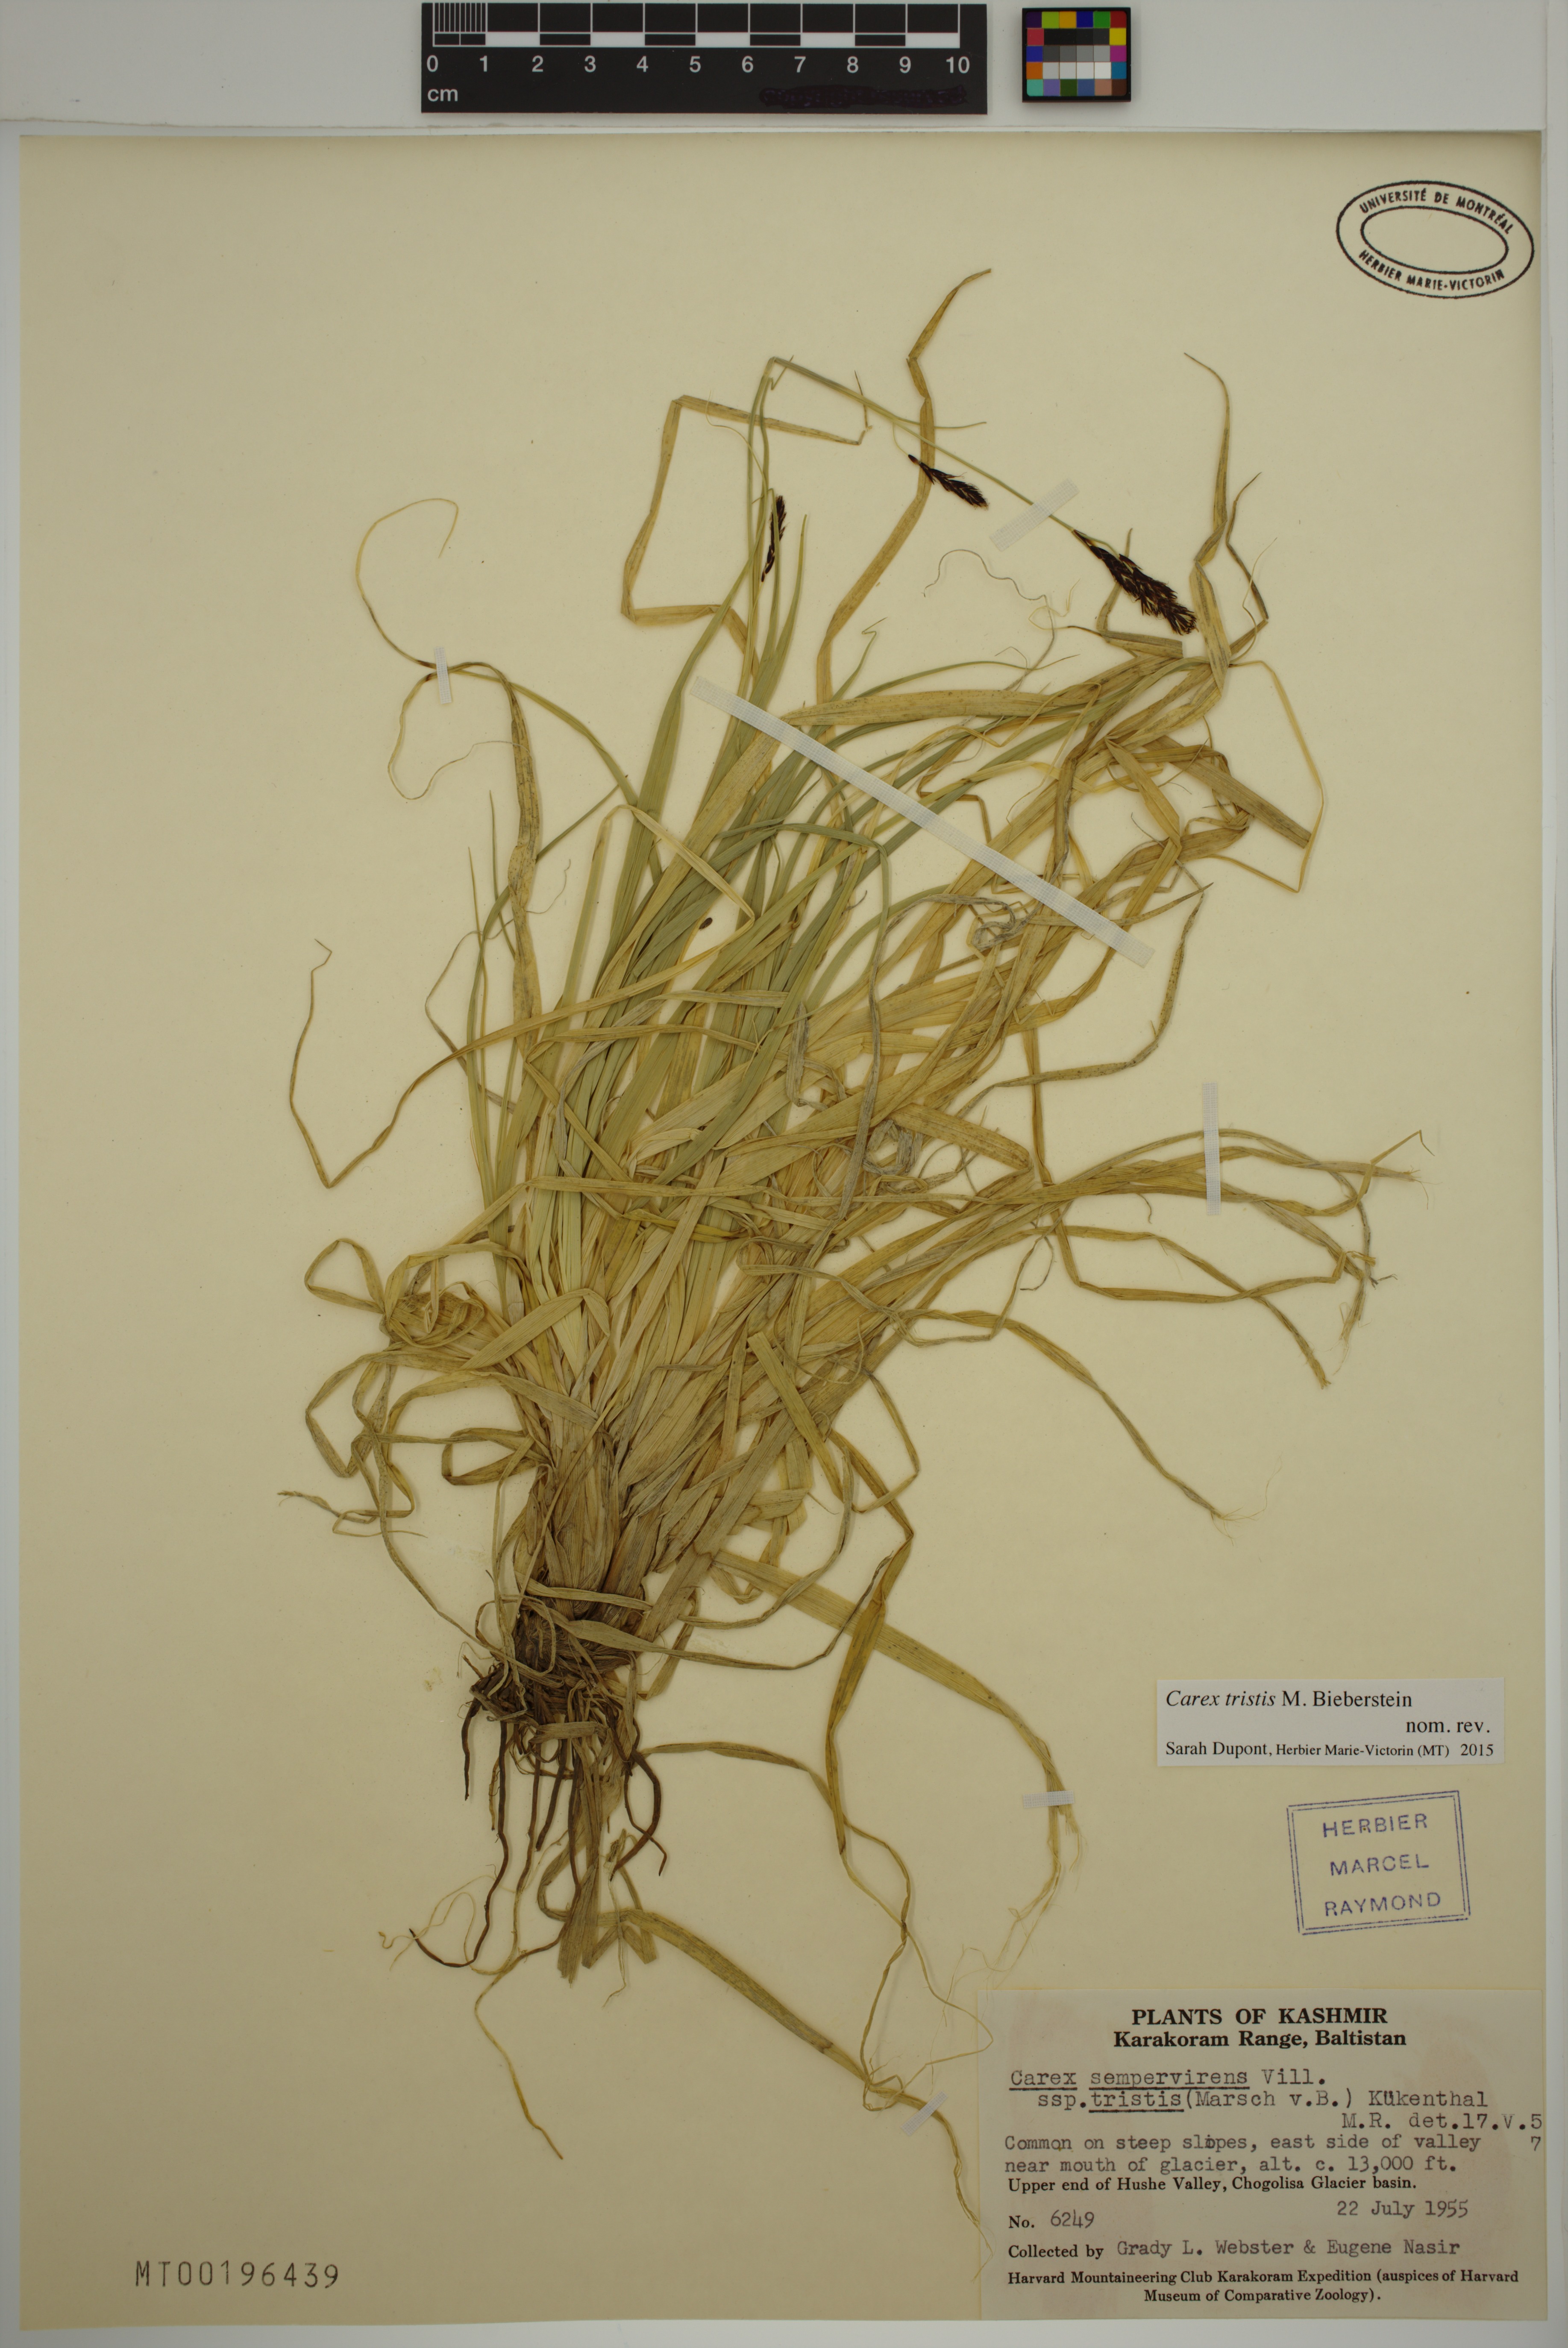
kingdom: Plantae
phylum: Tracheophyta
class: Liliopsida
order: Poales
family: Cyperaceae
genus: Carex
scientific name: Carex tristis
